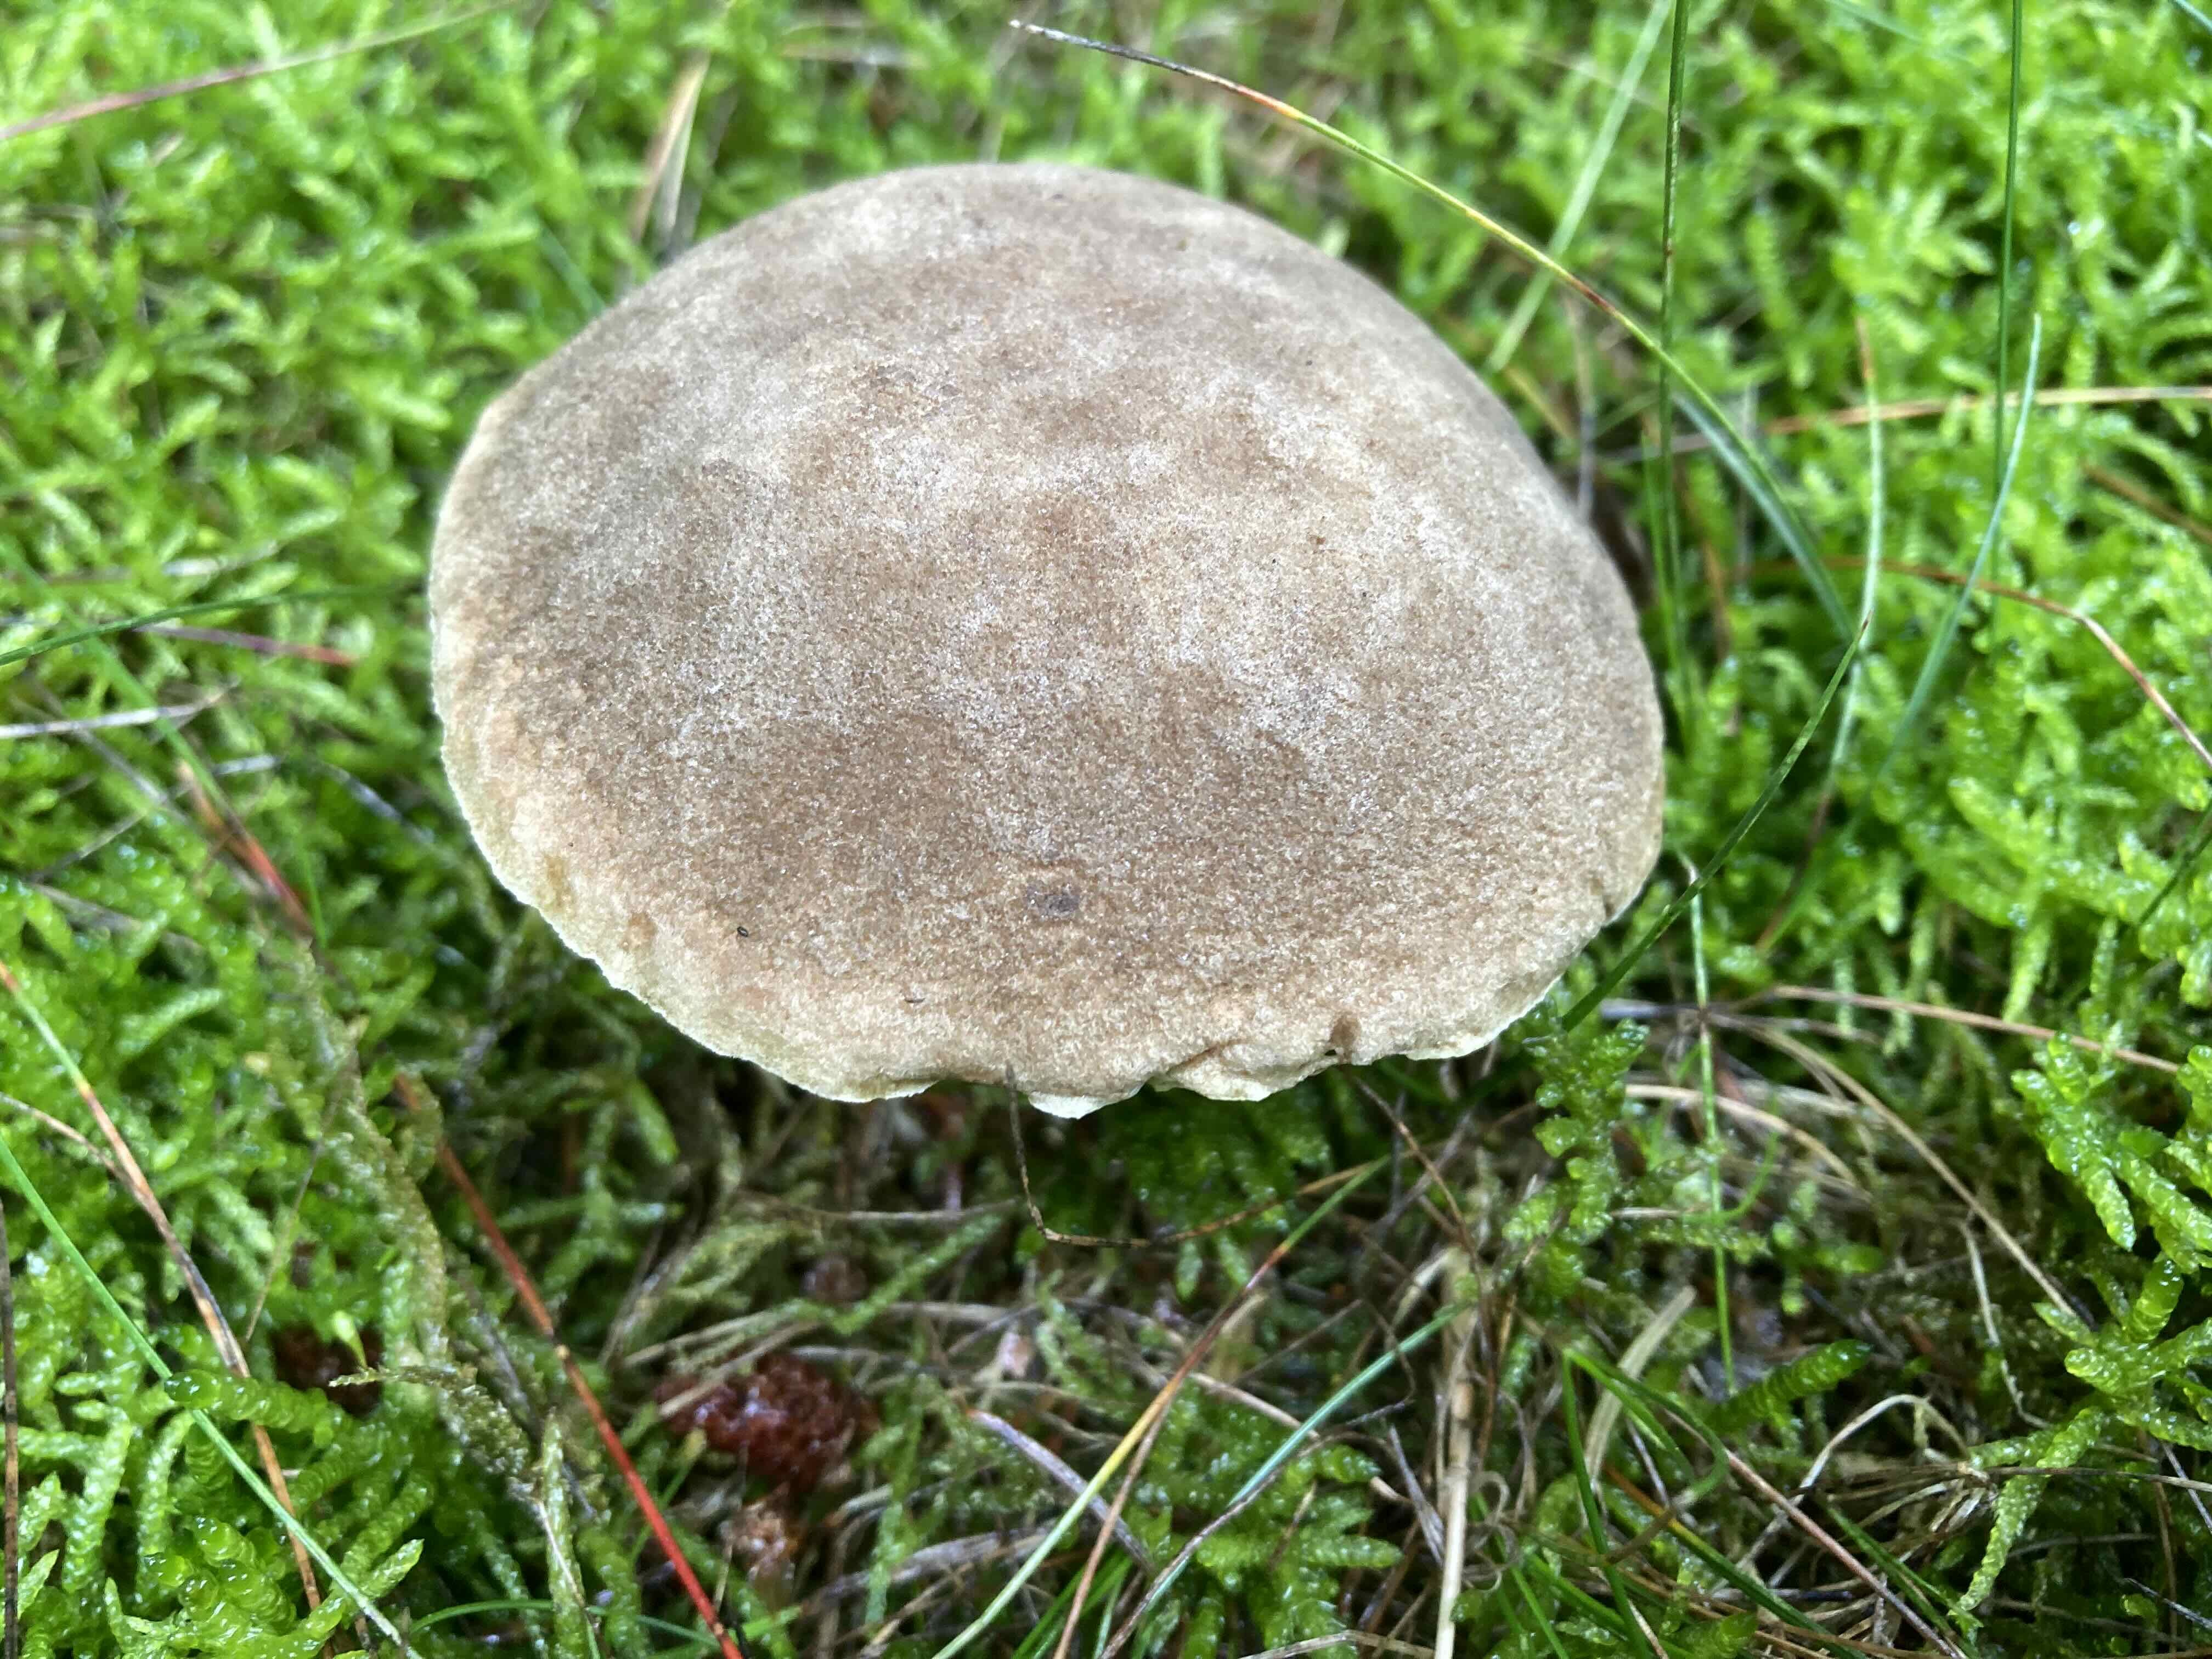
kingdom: Fungi
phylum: Basidiomycota
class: Agaricomycetes
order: Boletales
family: Boletaceae
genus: Xerocomellus
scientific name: Xerocomellus
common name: dværgrørhat
